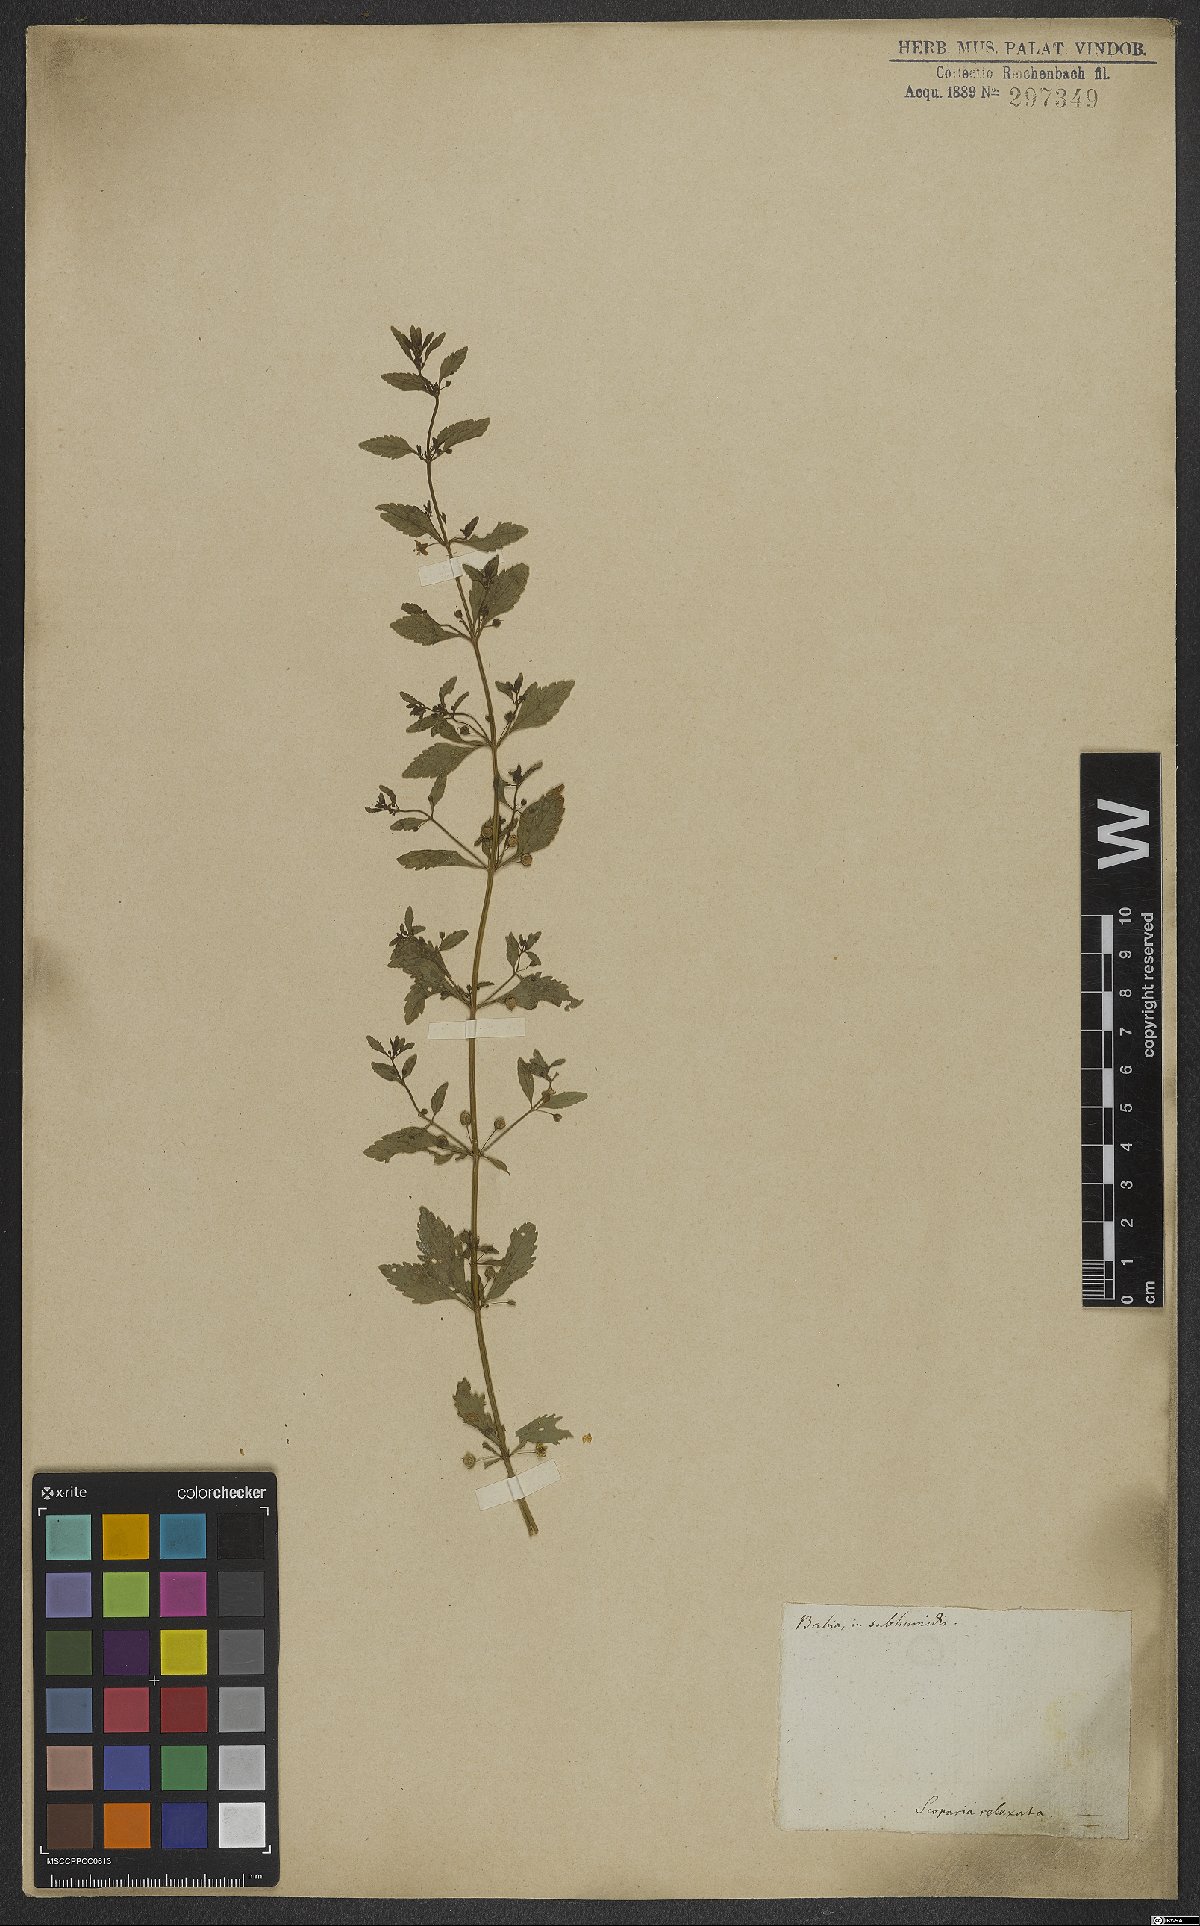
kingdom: Plantae
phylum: Tracheophyta
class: Magnoliopsida
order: Lamiales
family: Plantaginaceae
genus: Scoparia
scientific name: Scoparia dulcis
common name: Scoparia-weed
